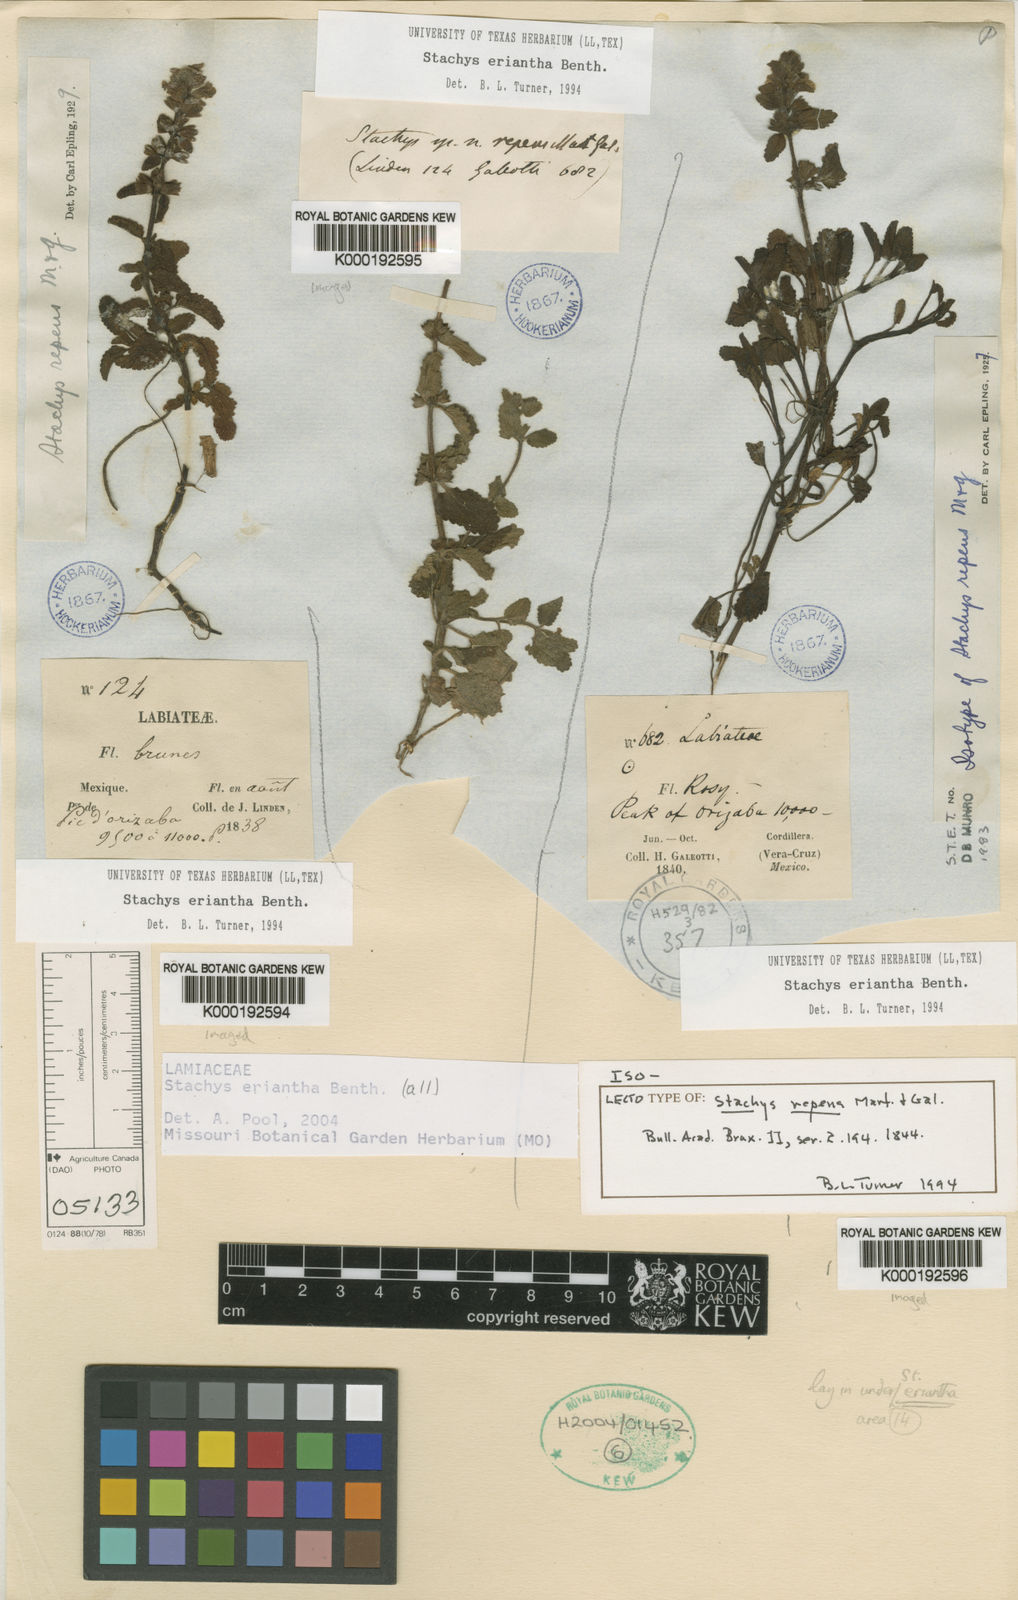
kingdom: Plantae
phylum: Tracheophyta
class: Magnoliopsida
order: Lamiales
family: Lamiaceae
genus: Stachys
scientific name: Stachys eriantha
